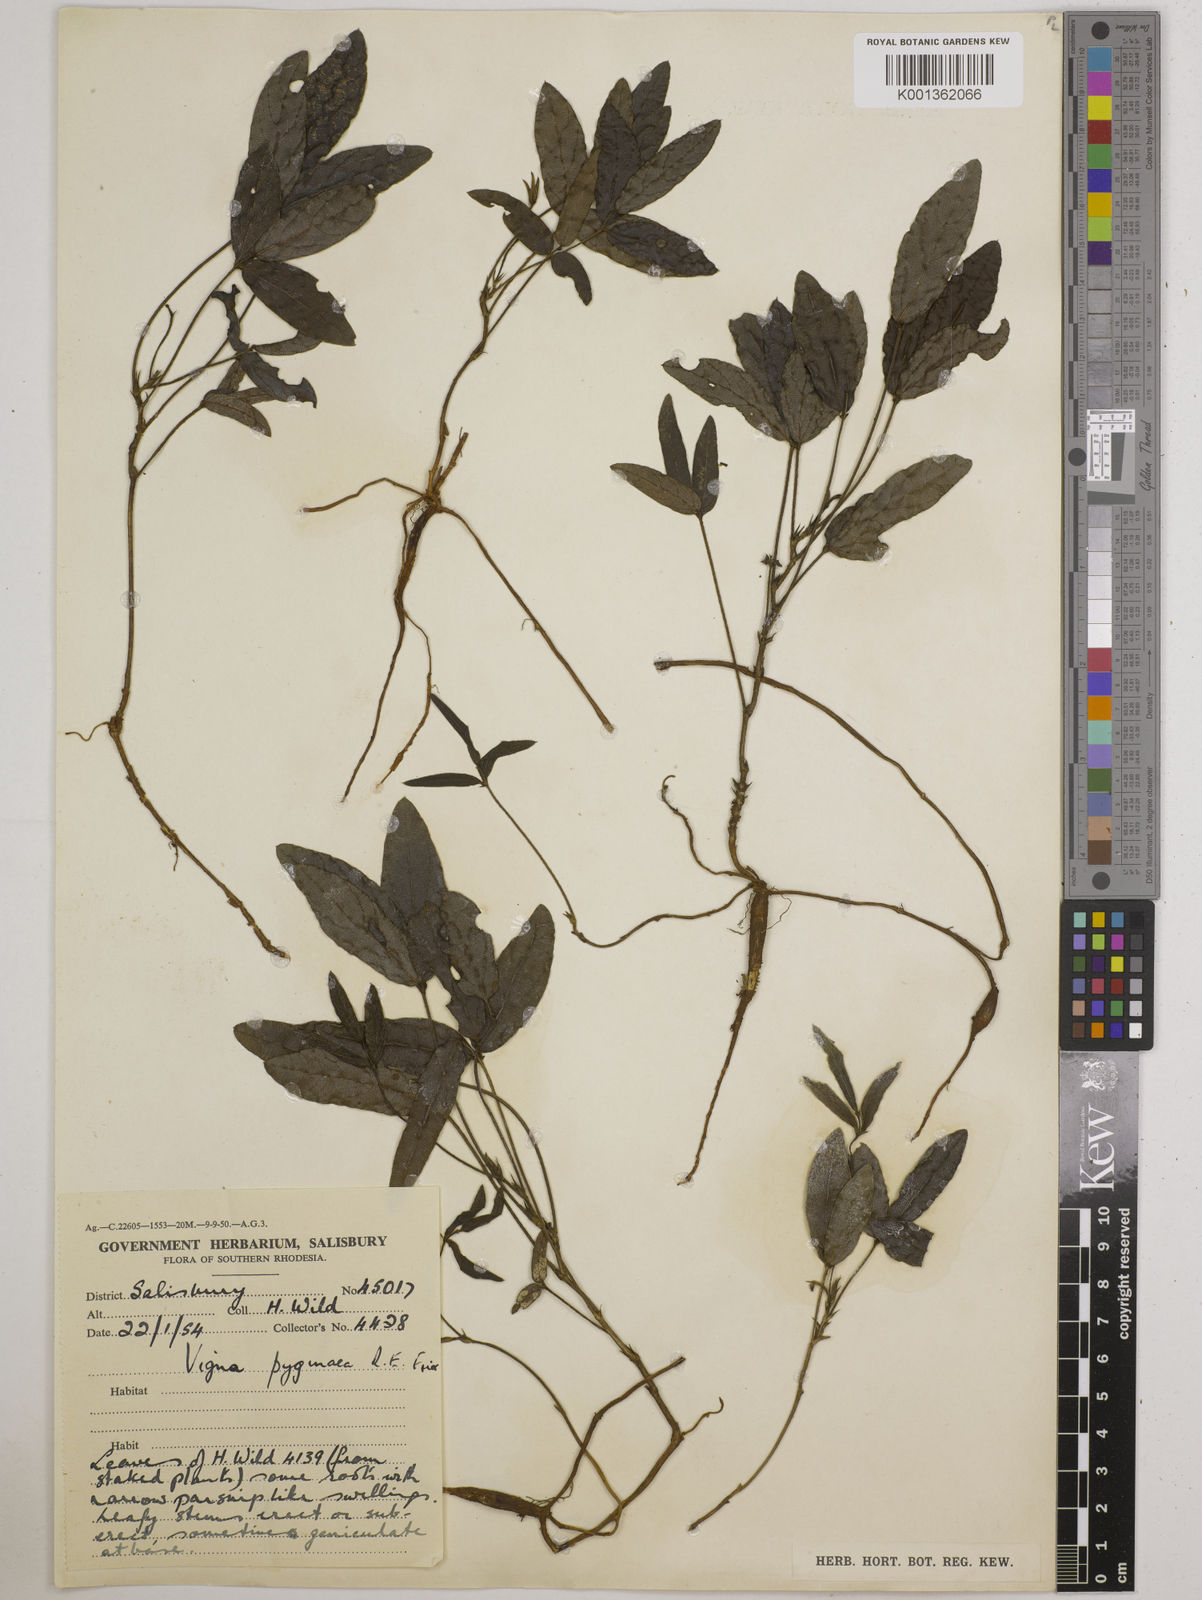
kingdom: Plantae
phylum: Tracheophyta
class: Magnoliopsida
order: Fabales
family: Fabaceae
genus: Vigna
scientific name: Vigna pygmaea
